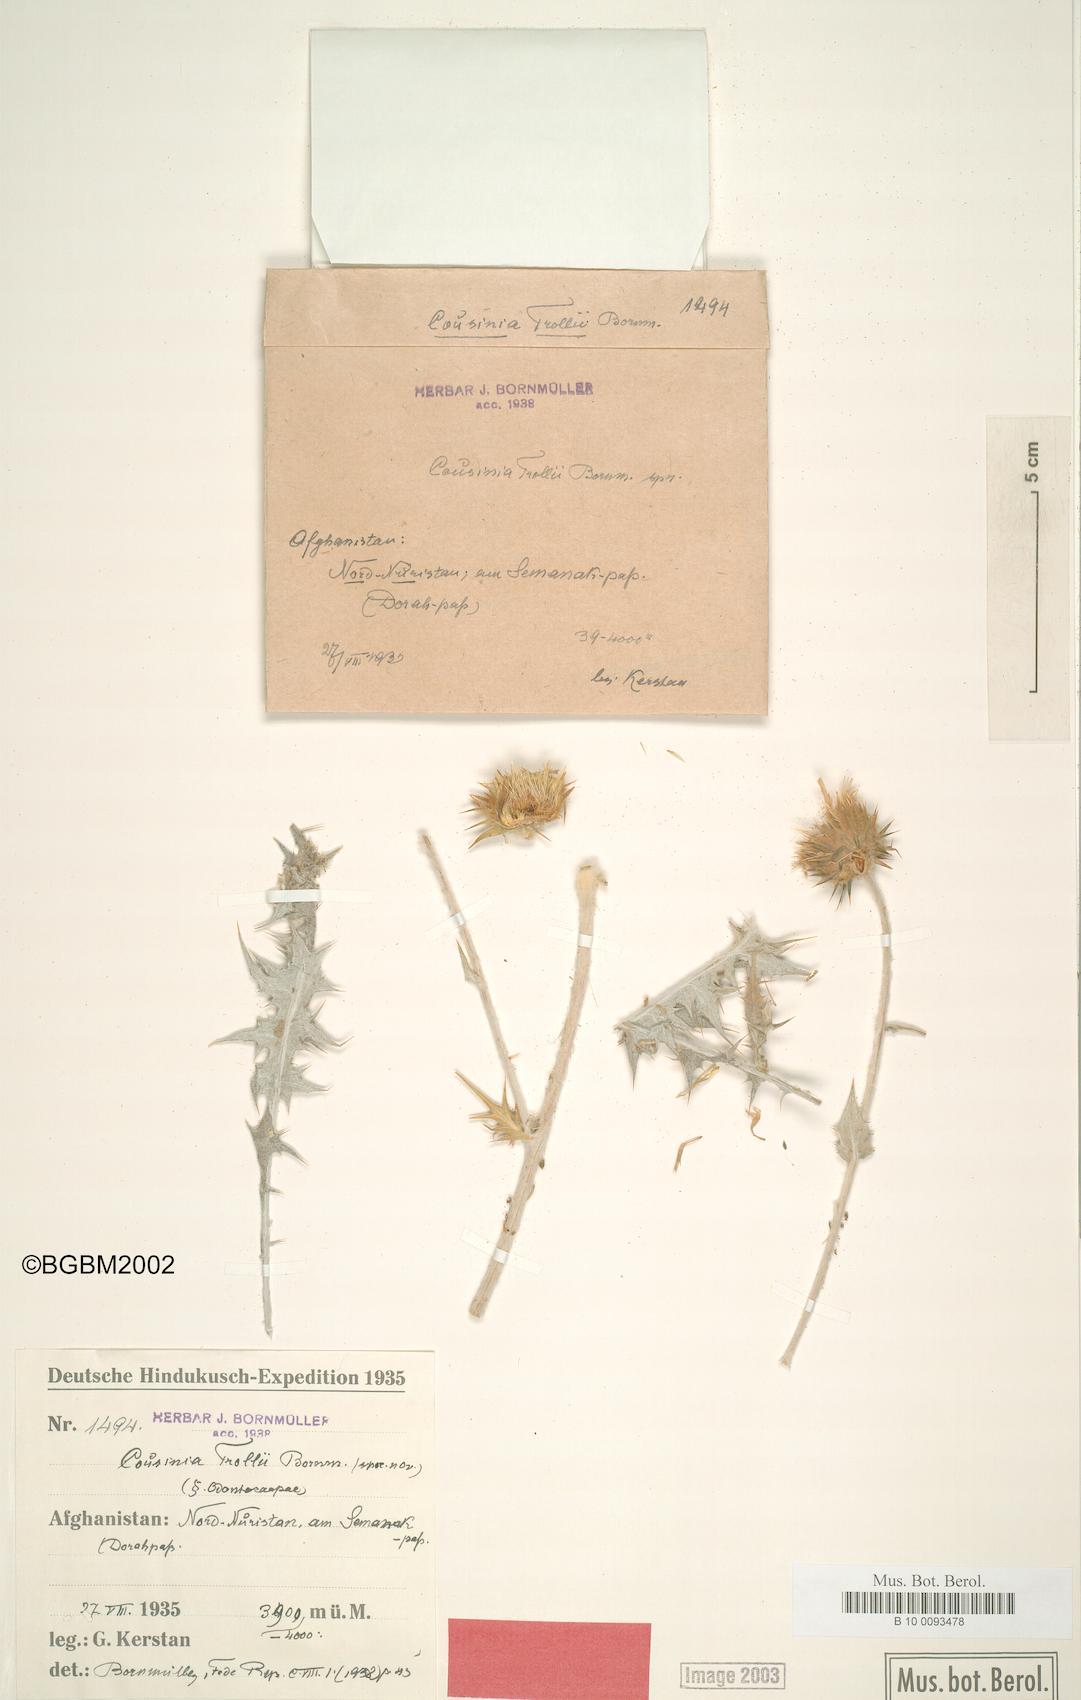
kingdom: Plantae
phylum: Tracheophyta
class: Magnoliopsida
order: Asterales
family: Asteraceae
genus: Cousinia
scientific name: Cousinia trollii
